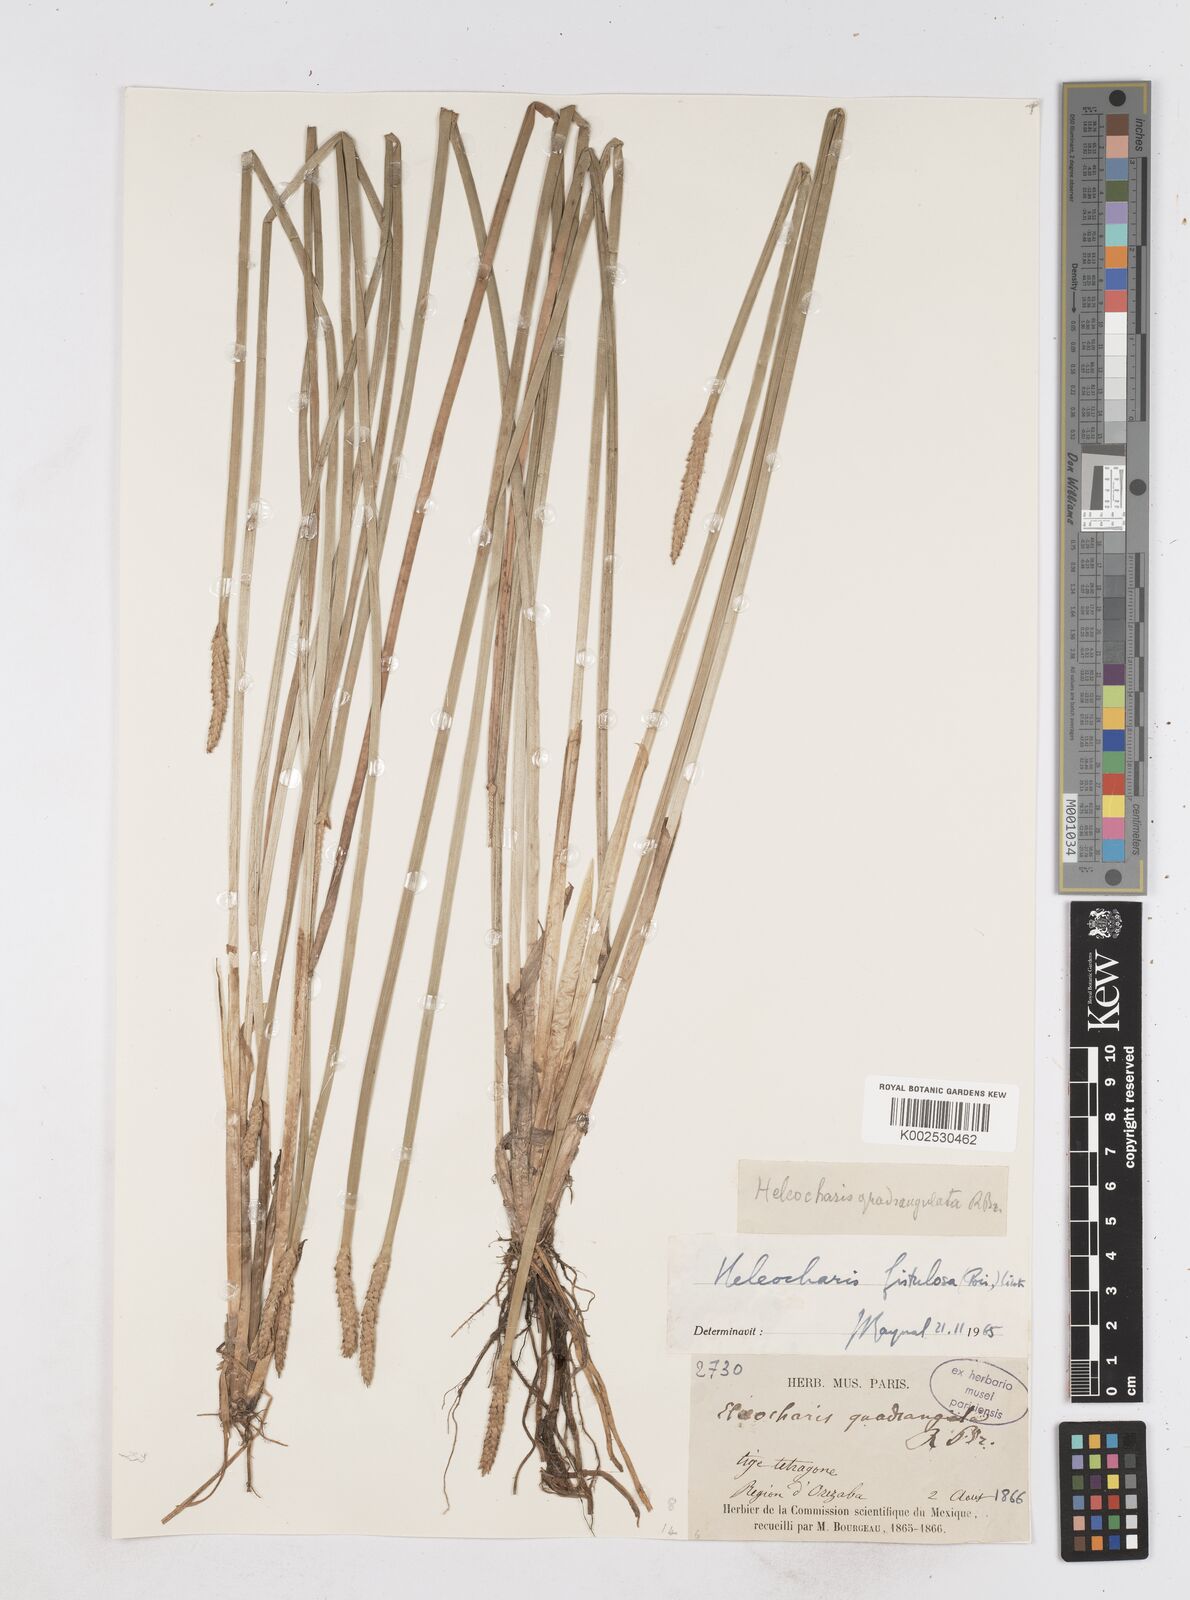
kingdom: Plantae
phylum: Tracheophyta
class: Liliopsida
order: Poales
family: Cyperaceae
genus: Eleocharis
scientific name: Eleocharis acutangula
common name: Acute spikerush
